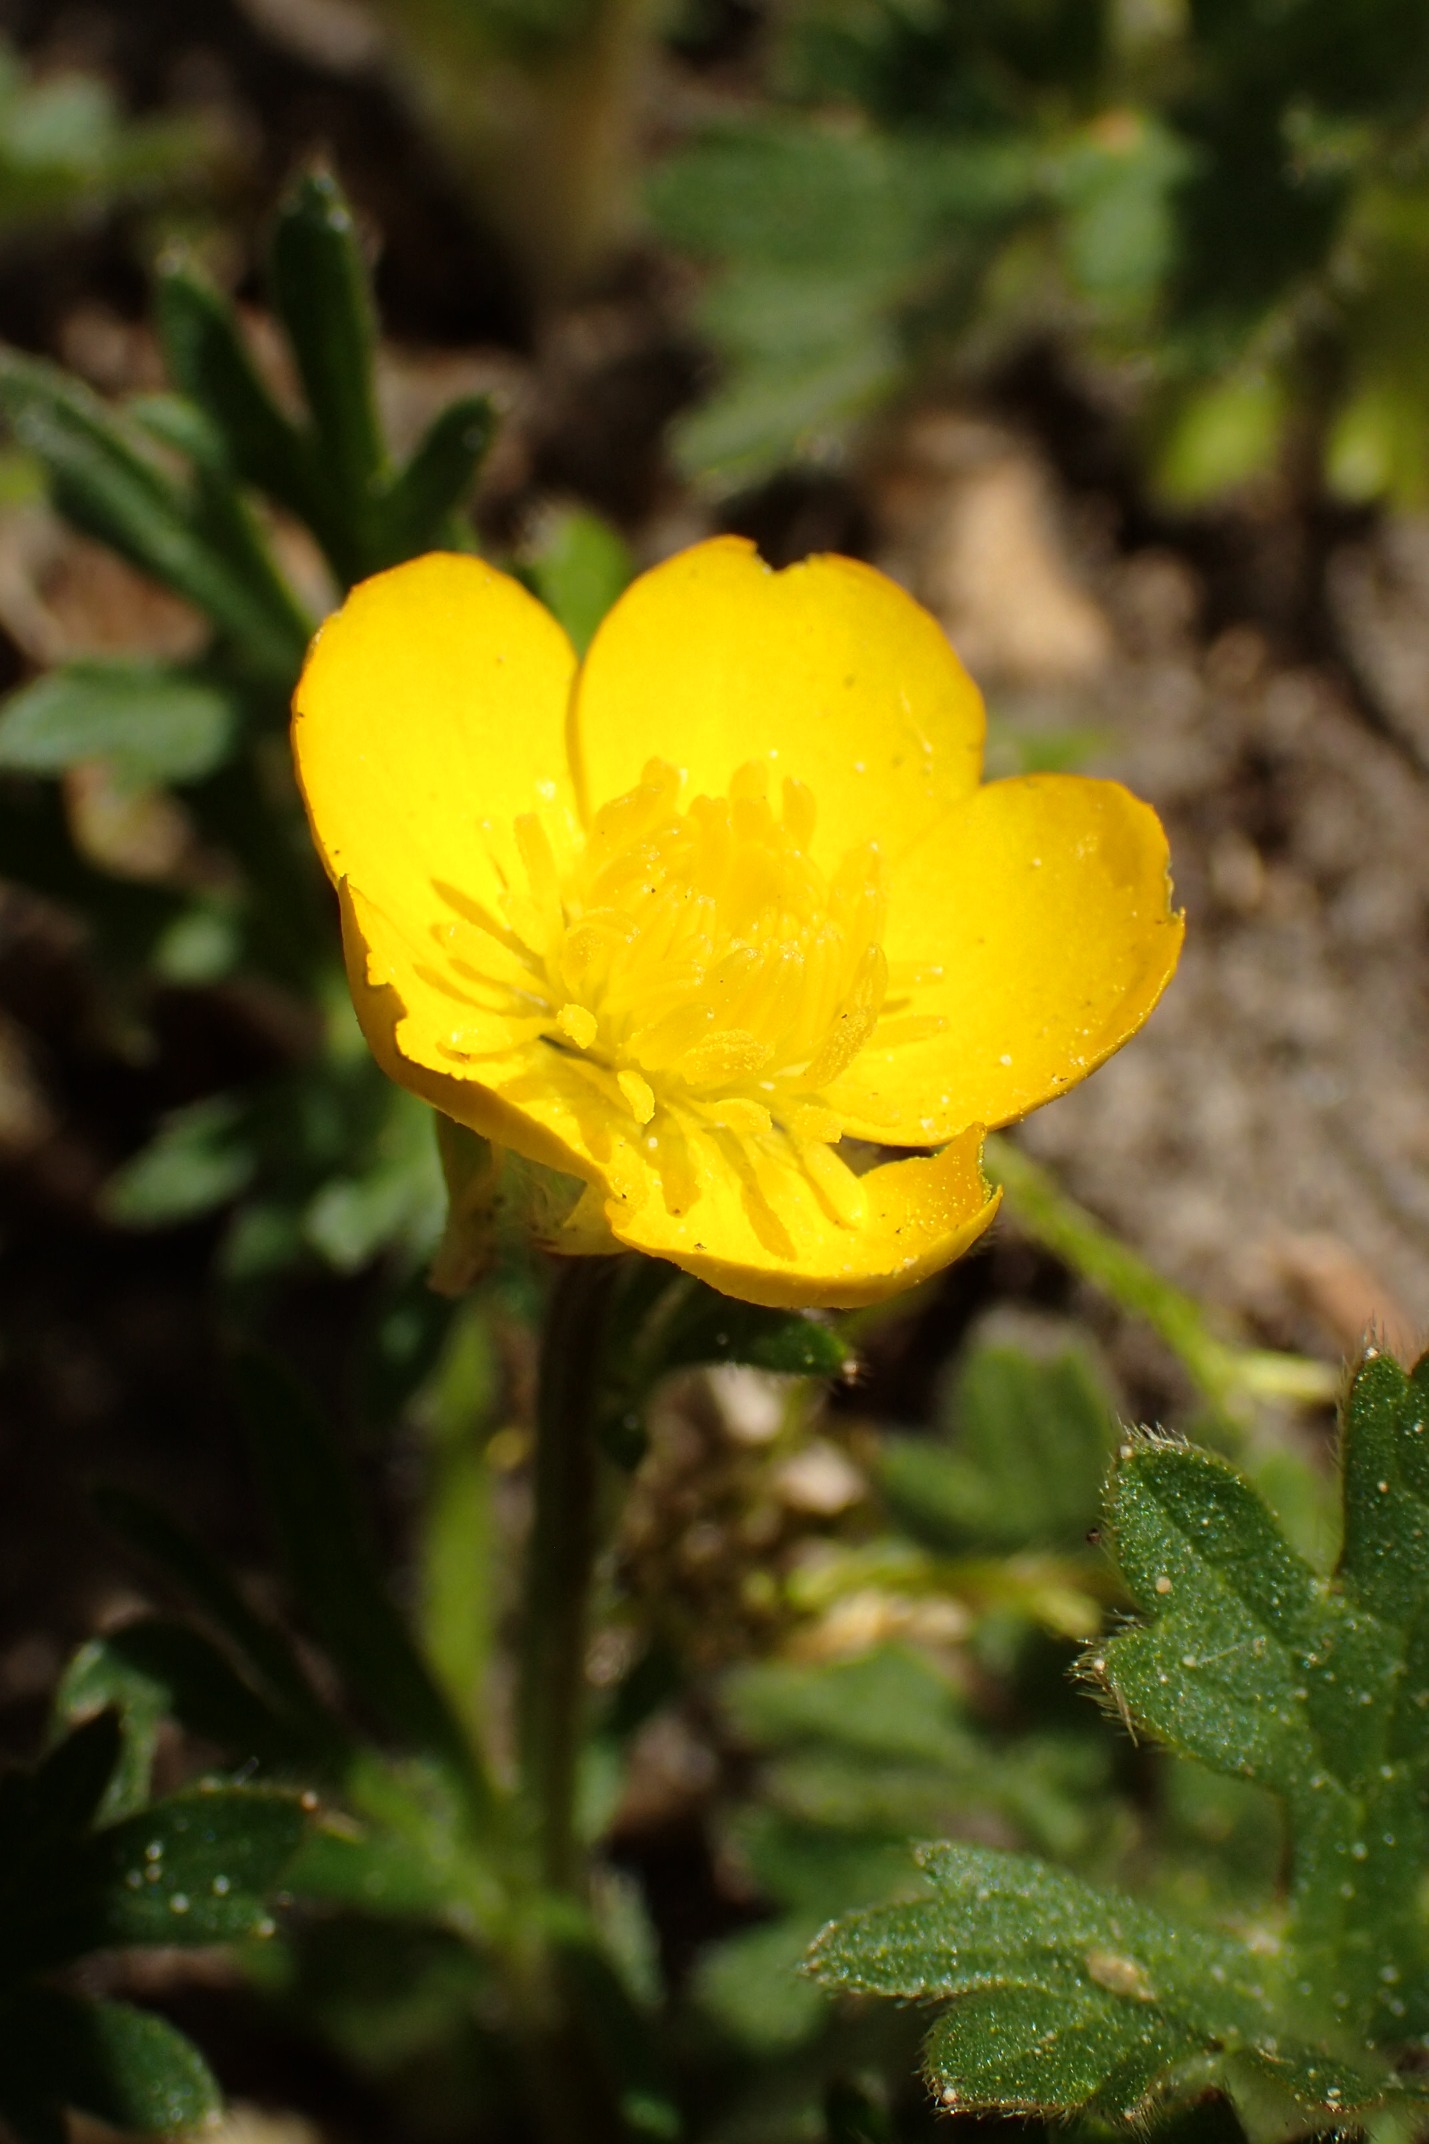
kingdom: Plantae
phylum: Tracheophyta
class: Magnoliopsida
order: Ranunculales
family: Ranunculaceae
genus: Ranunculus
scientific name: Ranunculus bulbosus
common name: Knold-ranunkel
